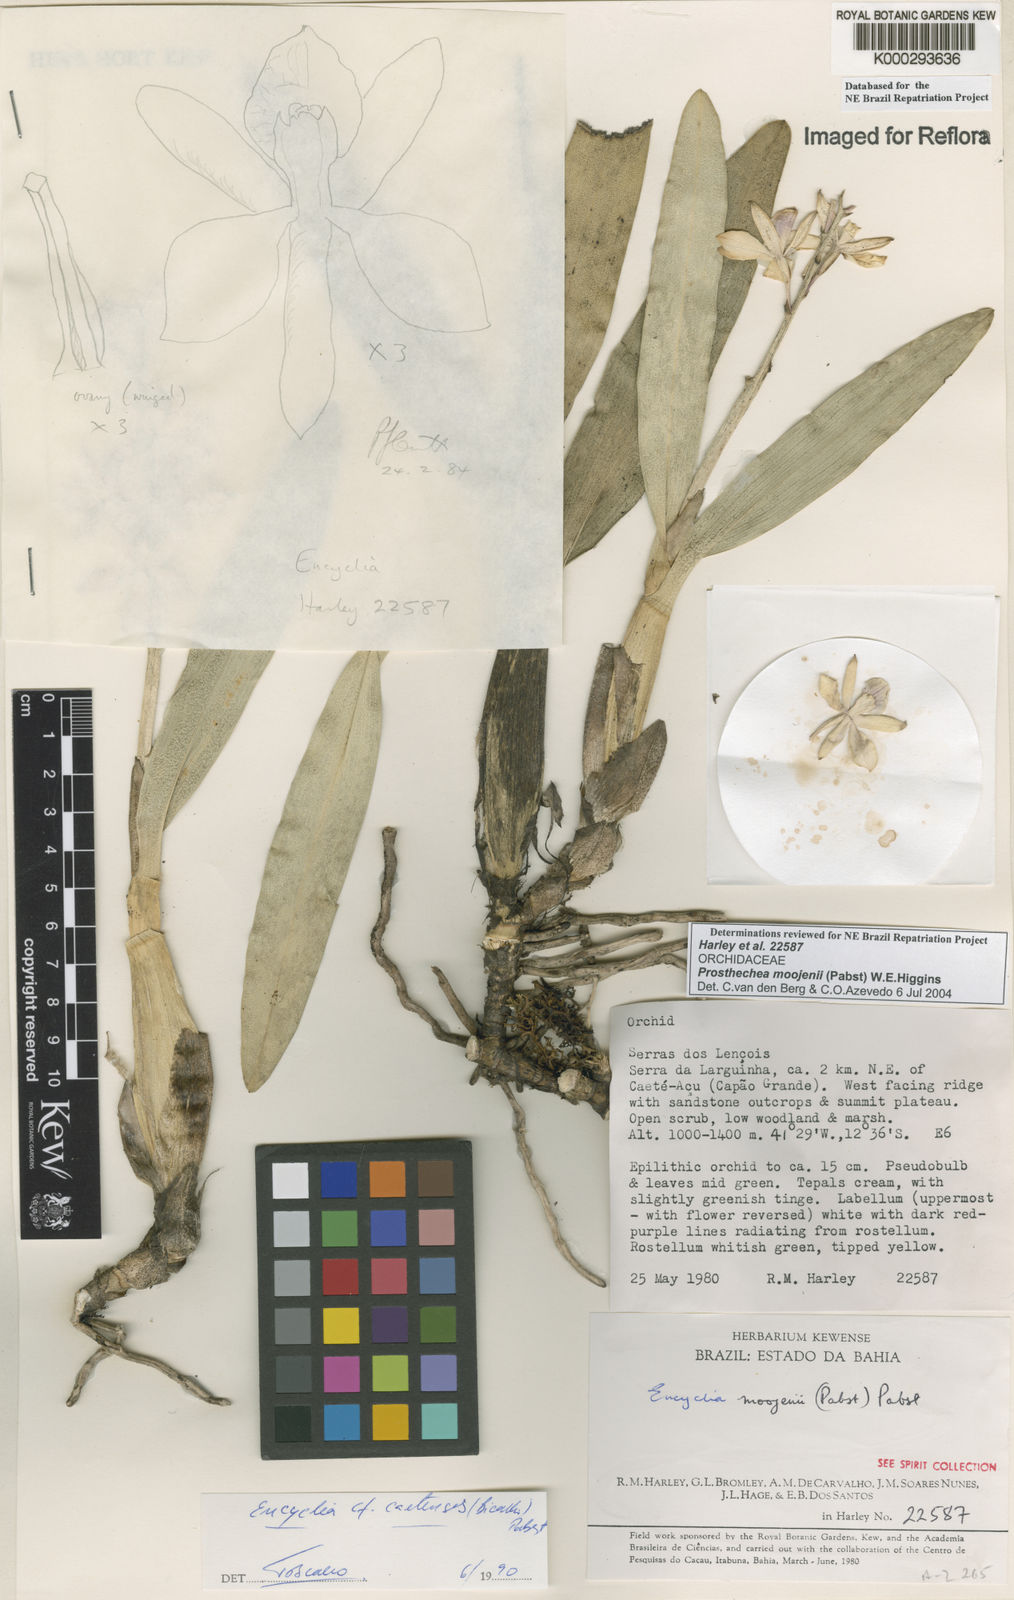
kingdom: Plantae
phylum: Tracheophyta
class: Liliopsida
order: Asparagales
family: Orchidaceae
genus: Prosthechea
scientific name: Prosthechea moojenii
